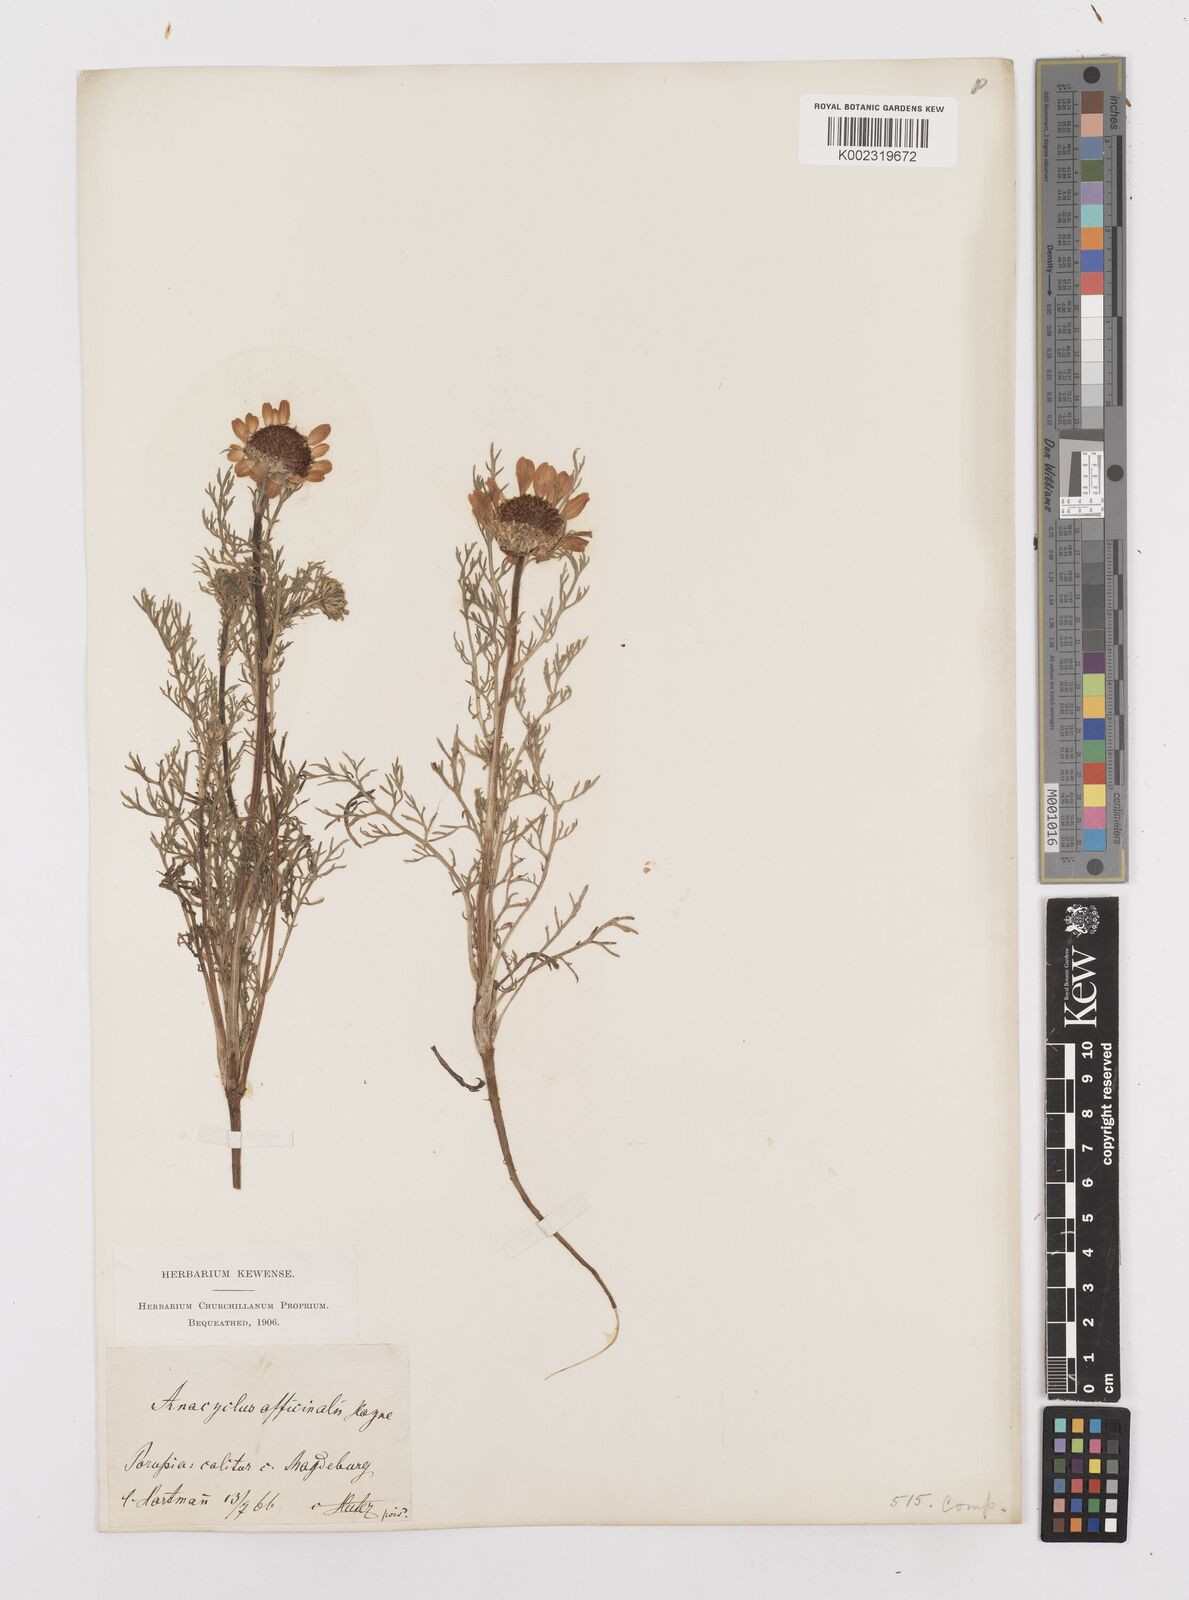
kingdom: Plantae
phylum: Tracheophyta
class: Magnoliopsida
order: Asterales
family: Asteraceae
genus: Anacyclus
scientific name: Anacyclus pyrethrum
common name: Mt. atlas daisy
